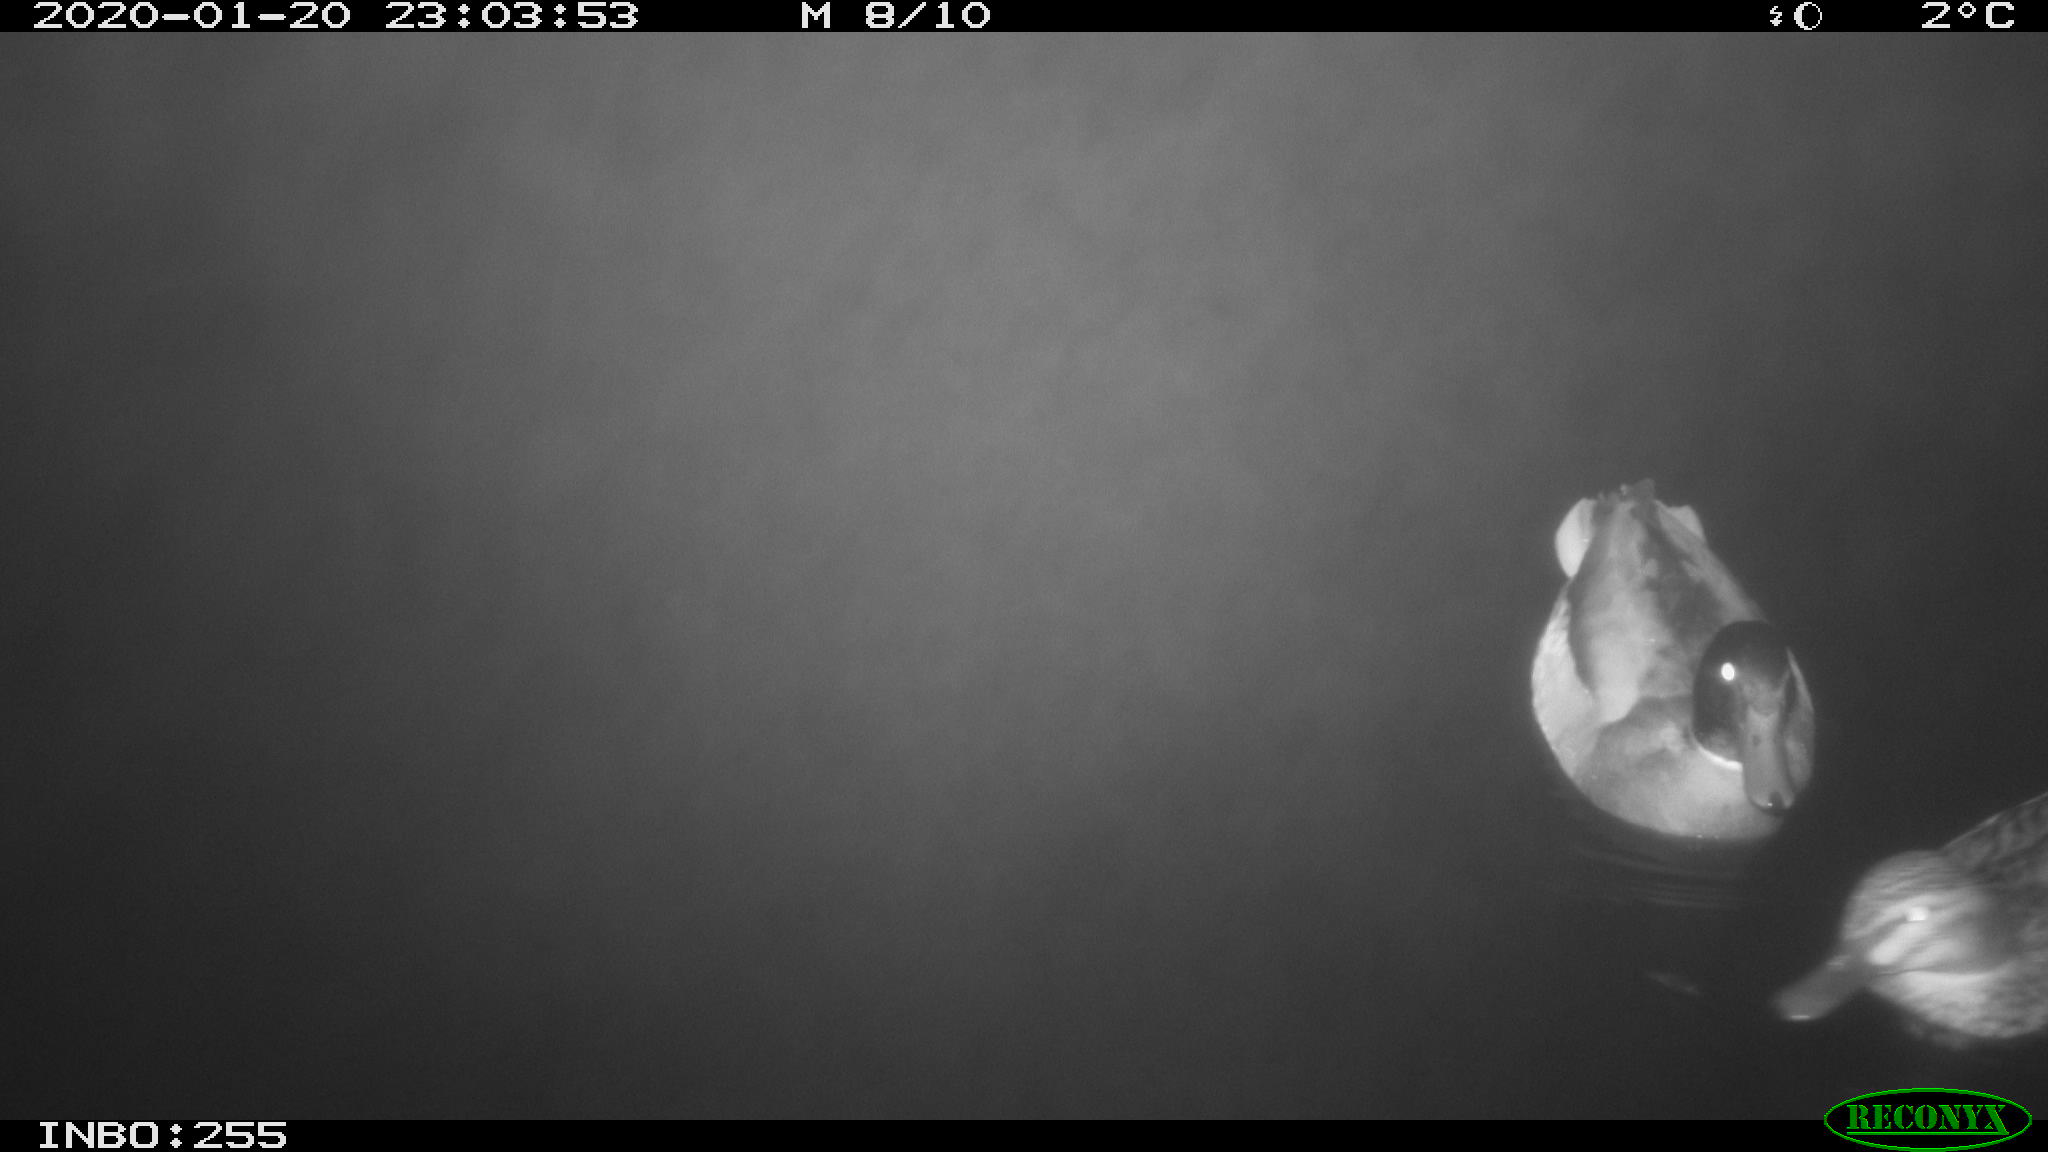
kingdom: Animalia
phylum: Chordata
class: Aves
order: Anseriformes
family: Anatidae
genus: Anas
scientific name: Anas platyrhynchos
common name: Mallard
